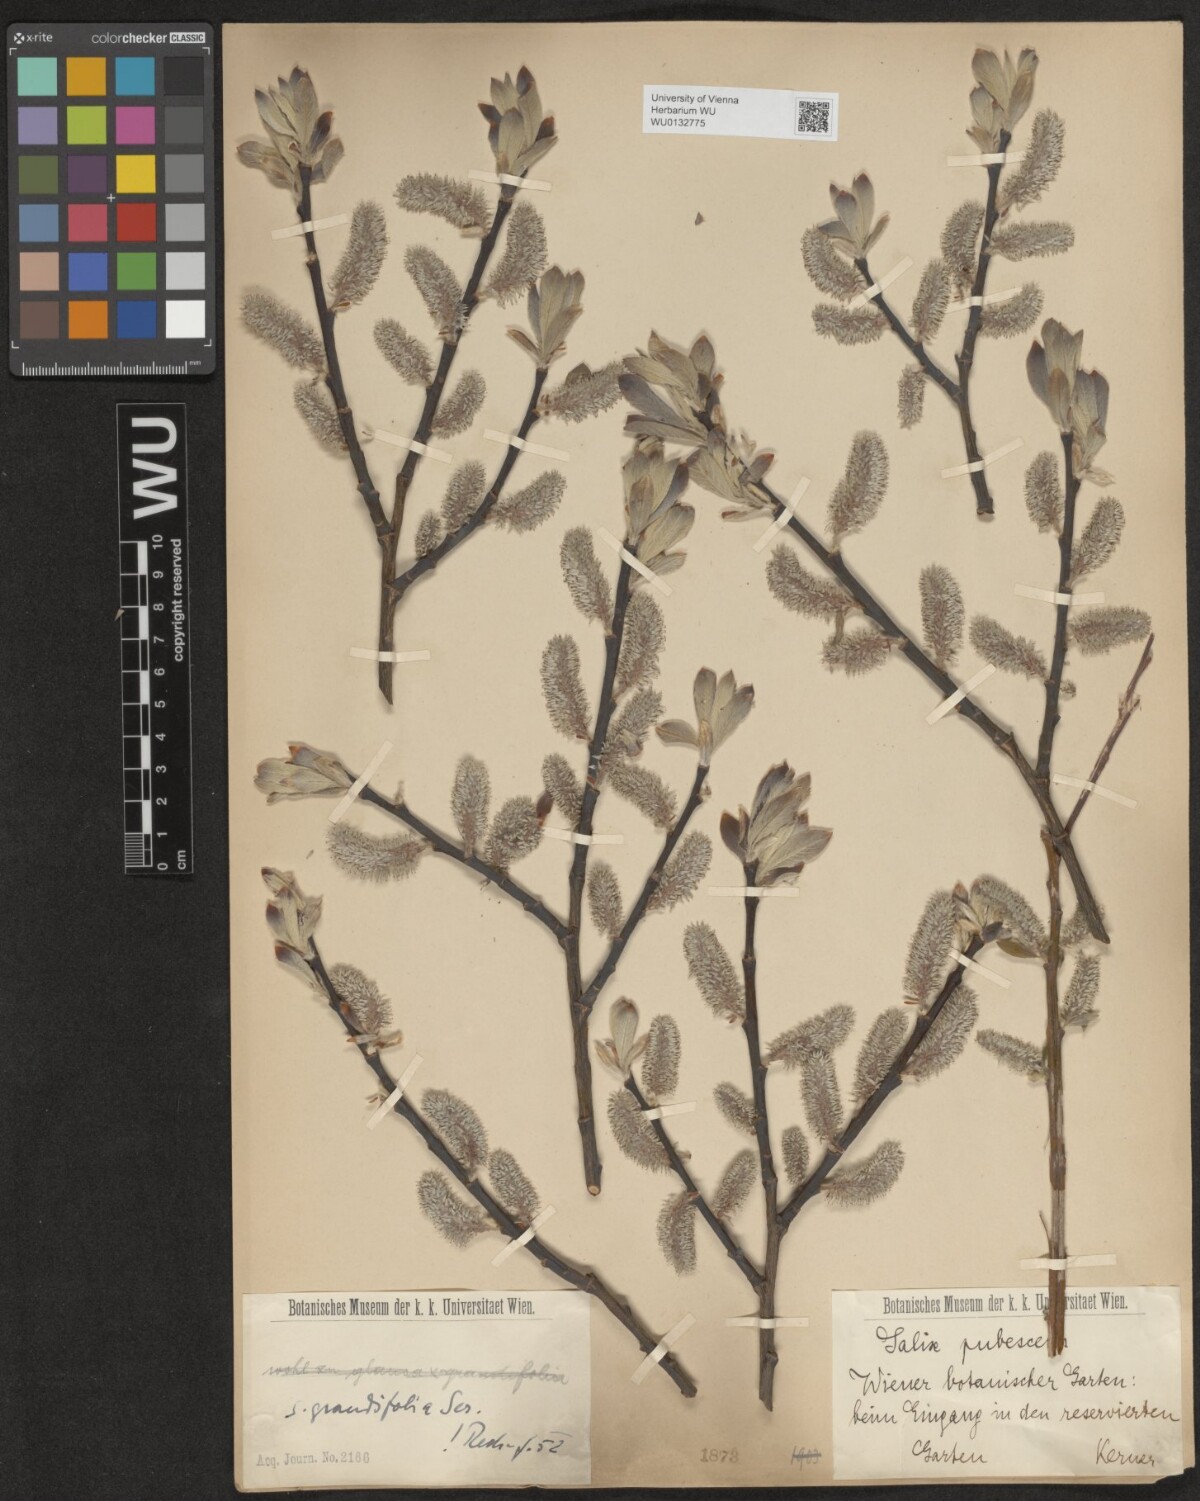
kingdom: Plantae
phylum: Tracheophyta
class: Magnoliopsida
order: Malpighiales
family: Salicaceae
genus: Salix
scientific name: Salix appendiculata
